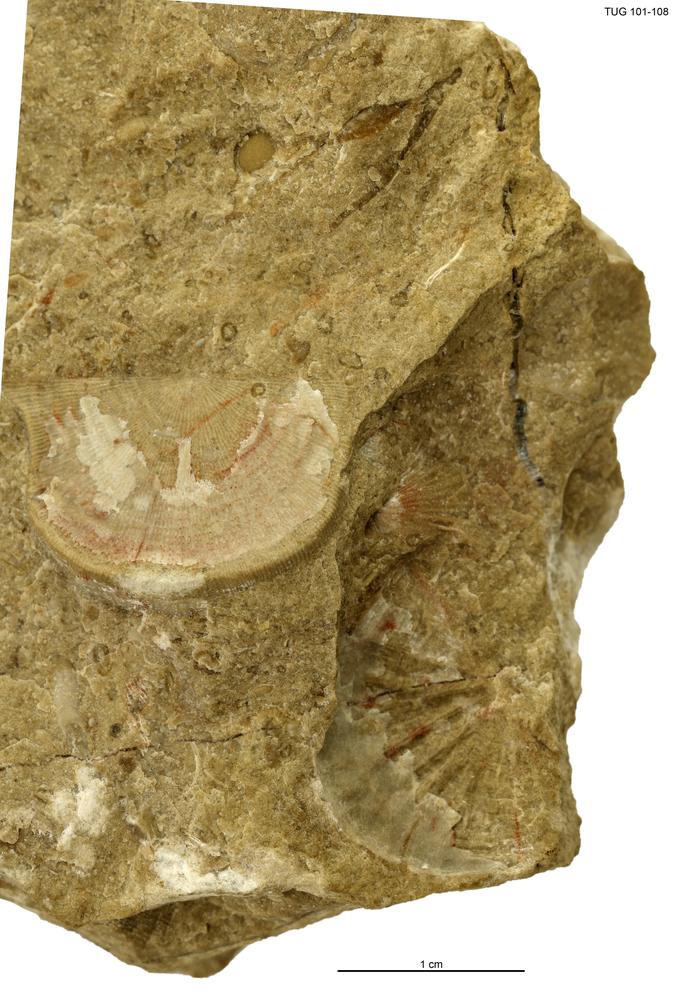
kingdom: Animalia
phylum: Brachiopoda
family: Strophomenidae
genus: Leptaena
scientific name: Leptaena
